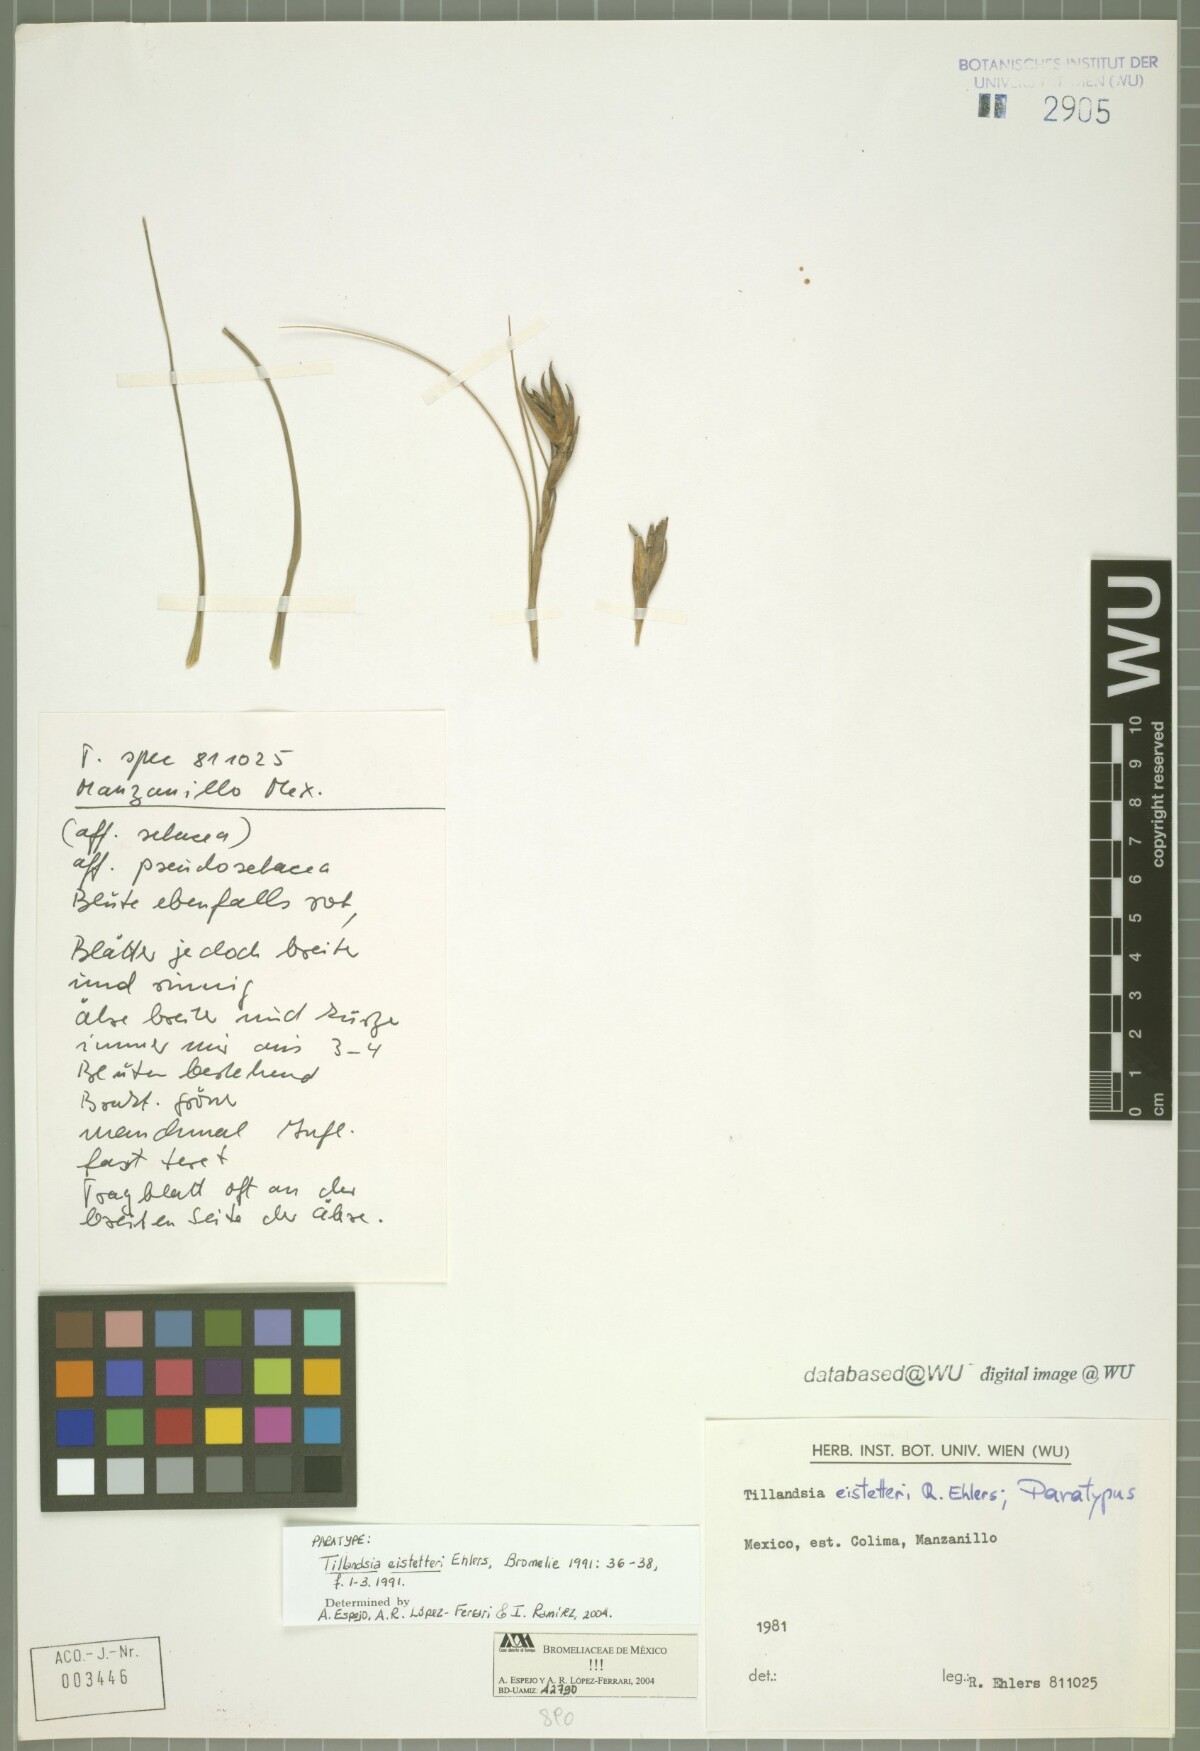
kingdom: Plantae
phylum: Tracheophyta
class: Liliopsida
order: Poales
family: Bromeliaceae
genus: Tillandsia
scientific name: Tillandsia eistetteri
